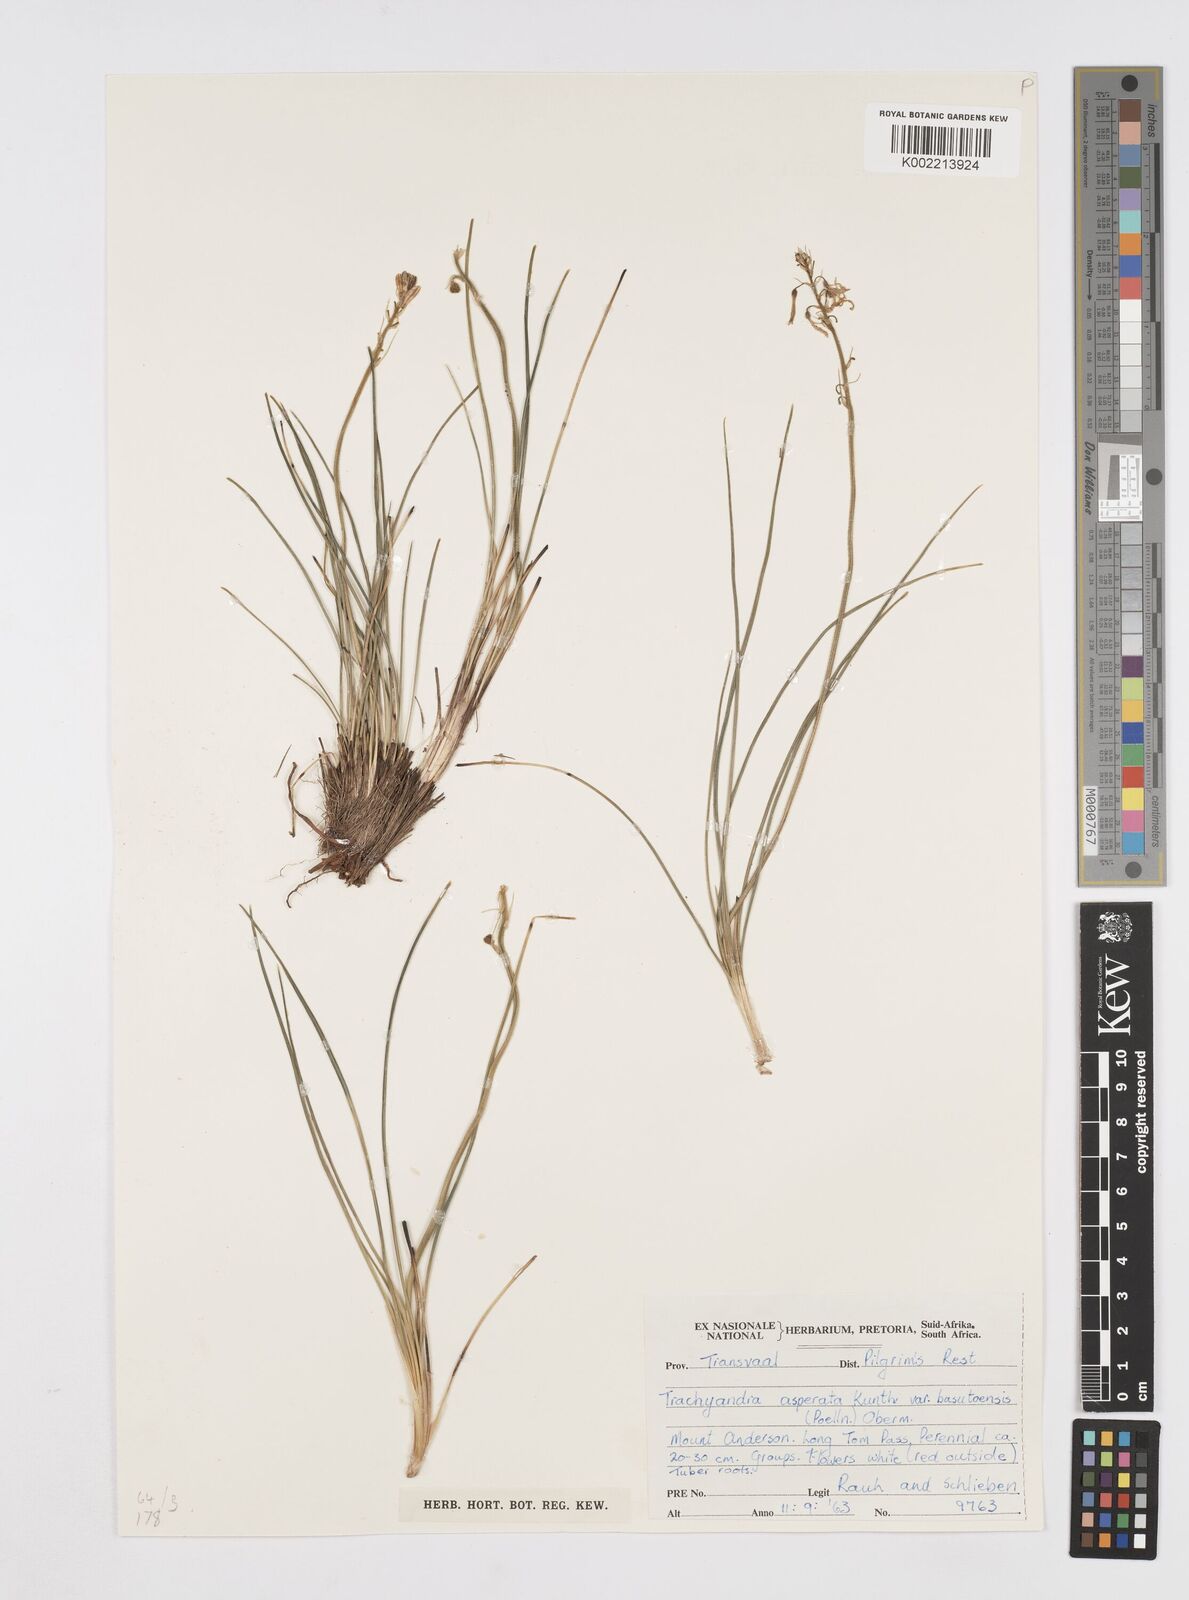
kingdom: Plantae
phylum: Tracheophyta
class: Liliopsida
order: Asparagales
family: Asphodelaceae
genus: Trachyandra
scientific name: Trachyandra asperata
